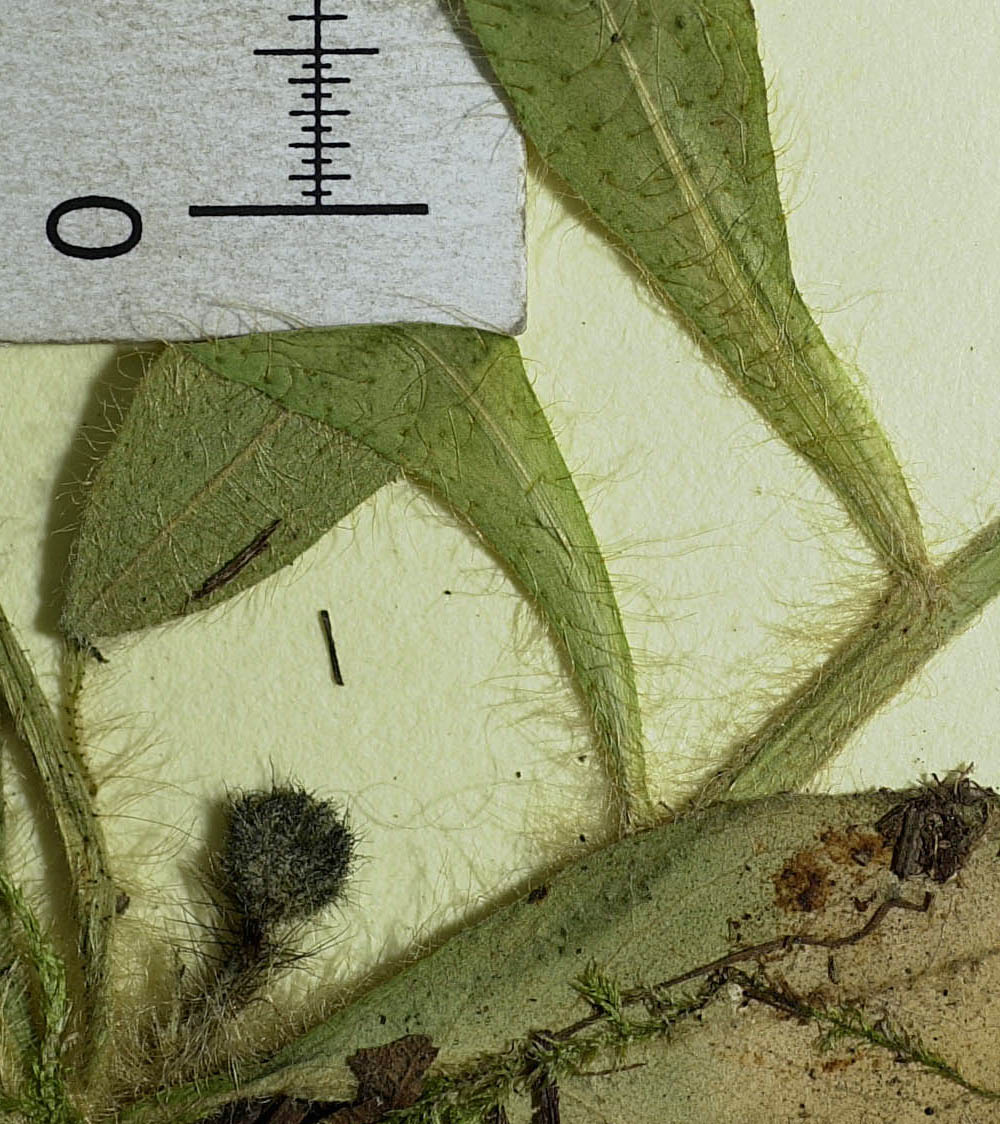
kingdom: Plantae
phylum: Tracheophyta
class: Magnoliopsida
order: Asterales
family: Asteraceae
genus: Pilosella
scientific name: Pilosella stoloniflora
